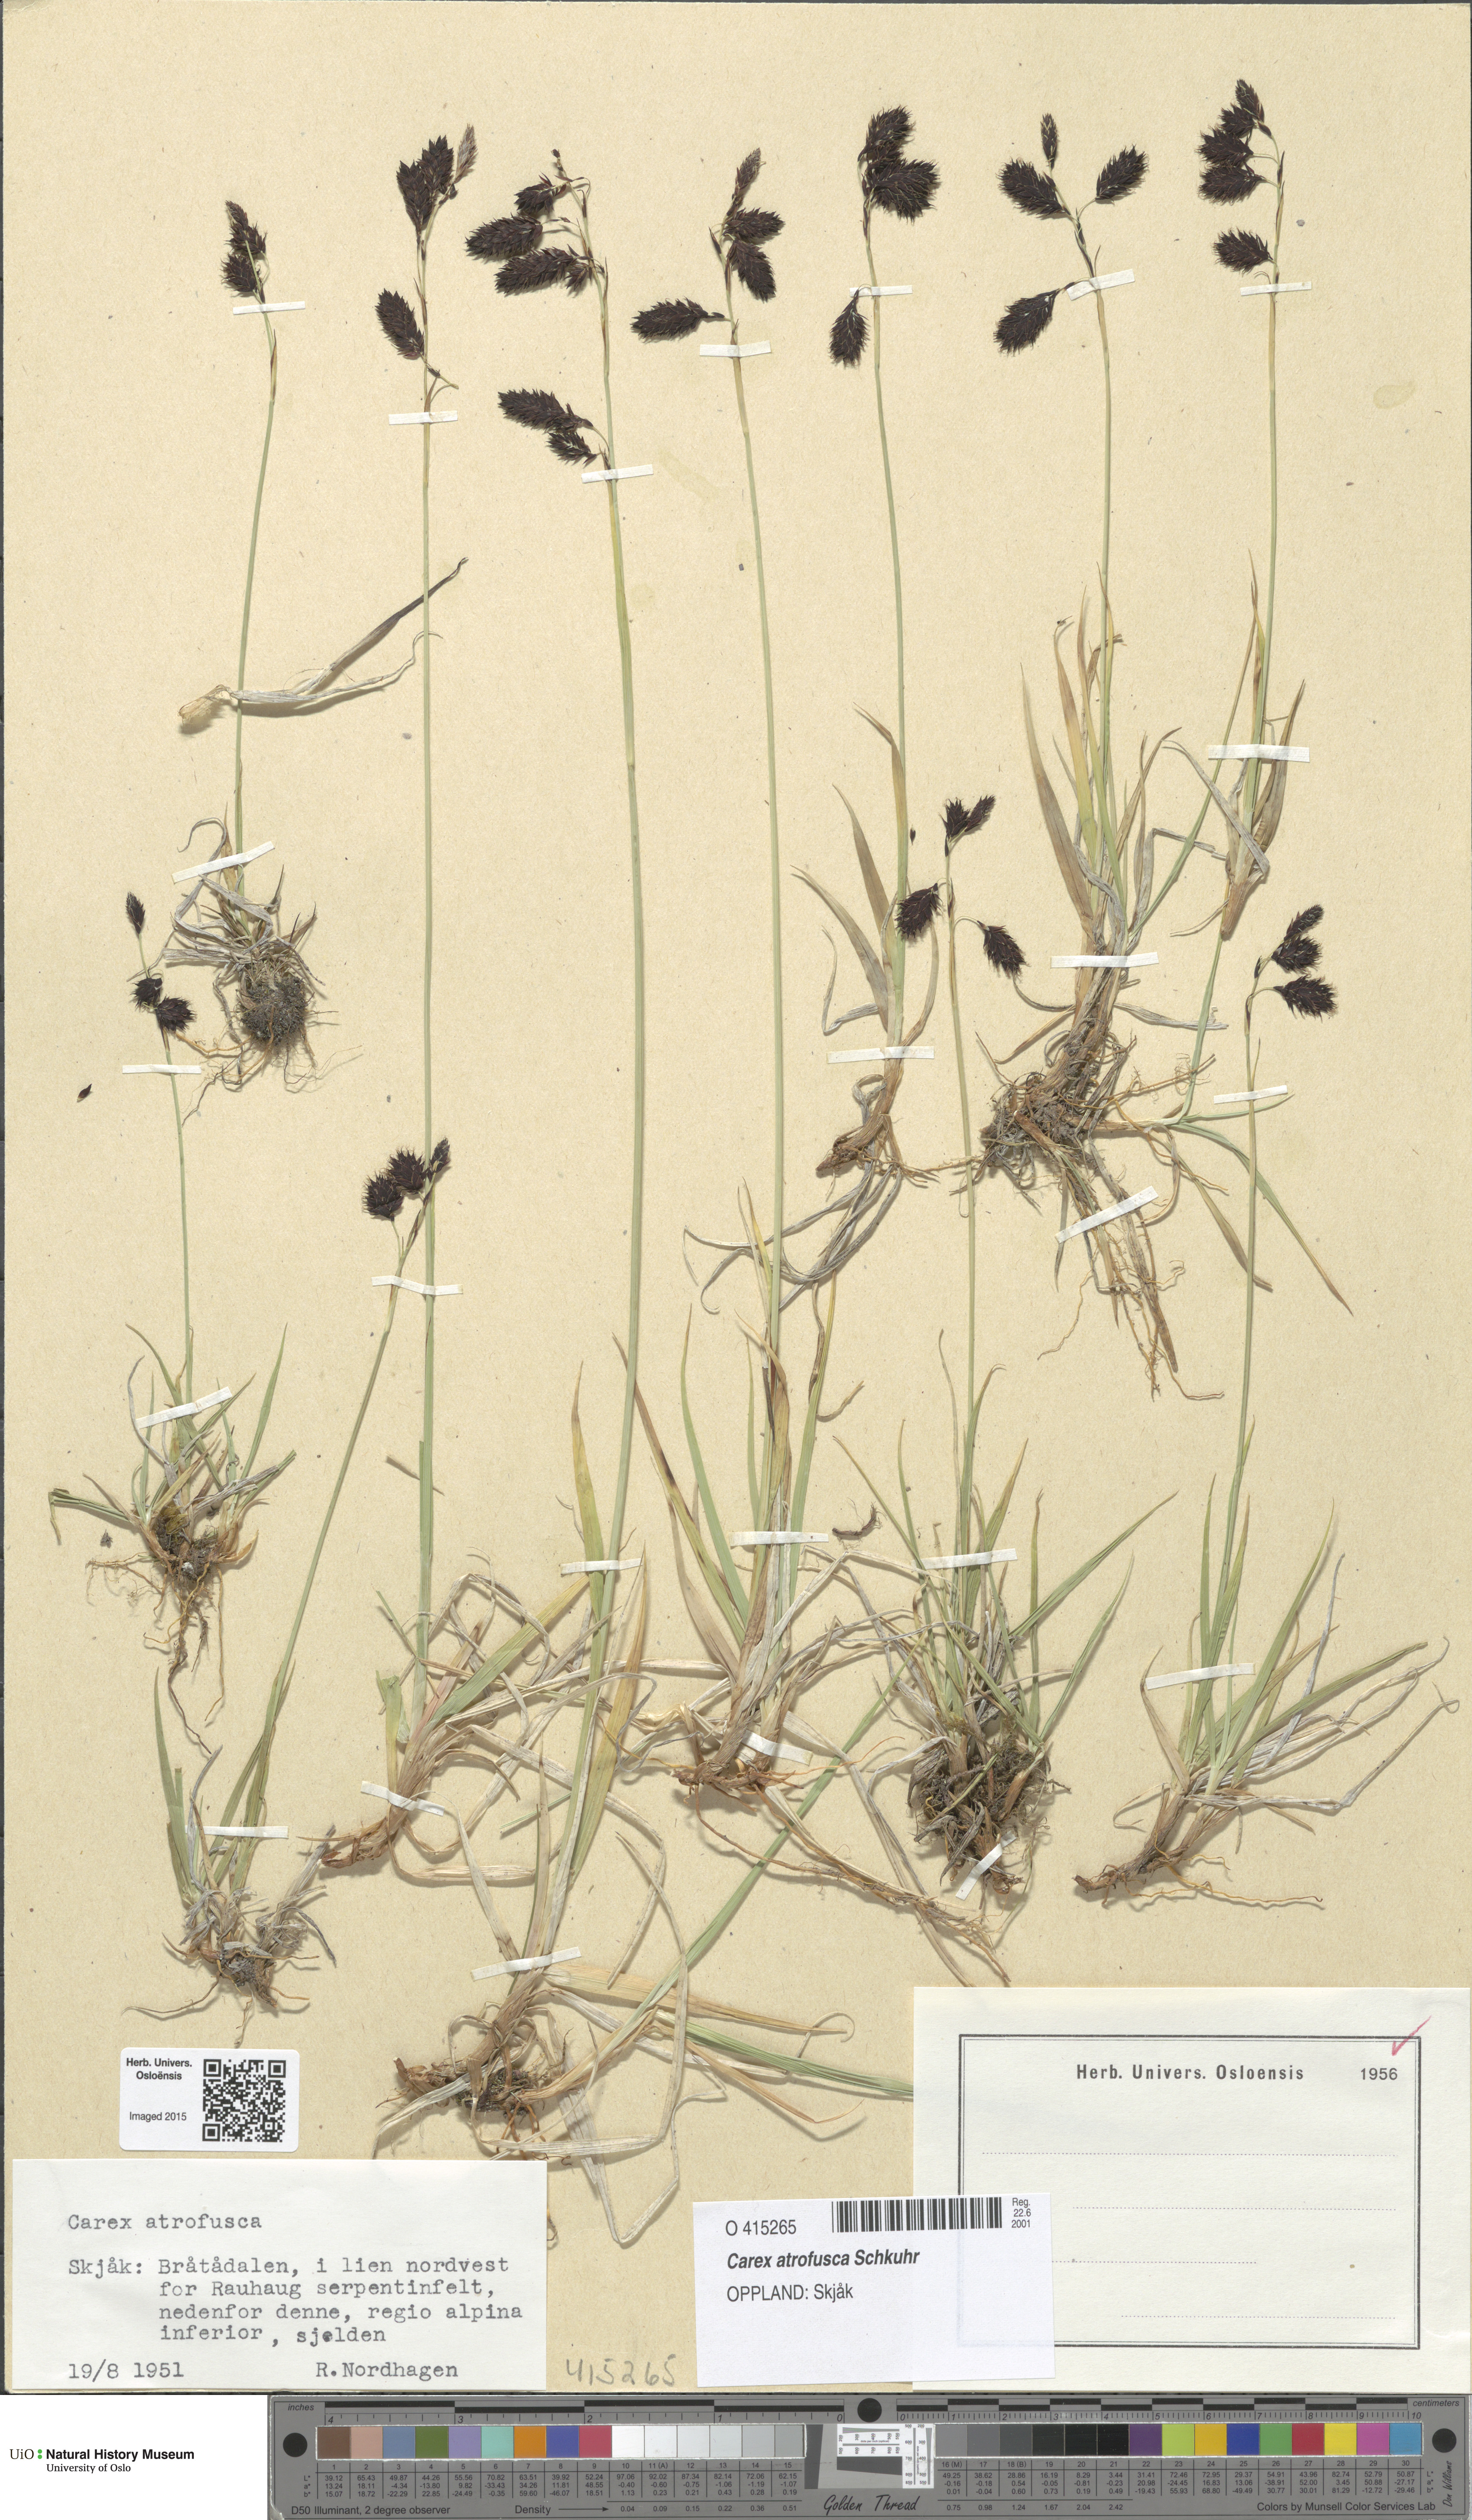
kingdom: Plantae
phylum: Tracheophyta
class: Liliopsida
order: Poales
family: Cyperaceae
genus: Carex
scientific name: Carex atrofusca
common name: Scorched alpine-sedge
